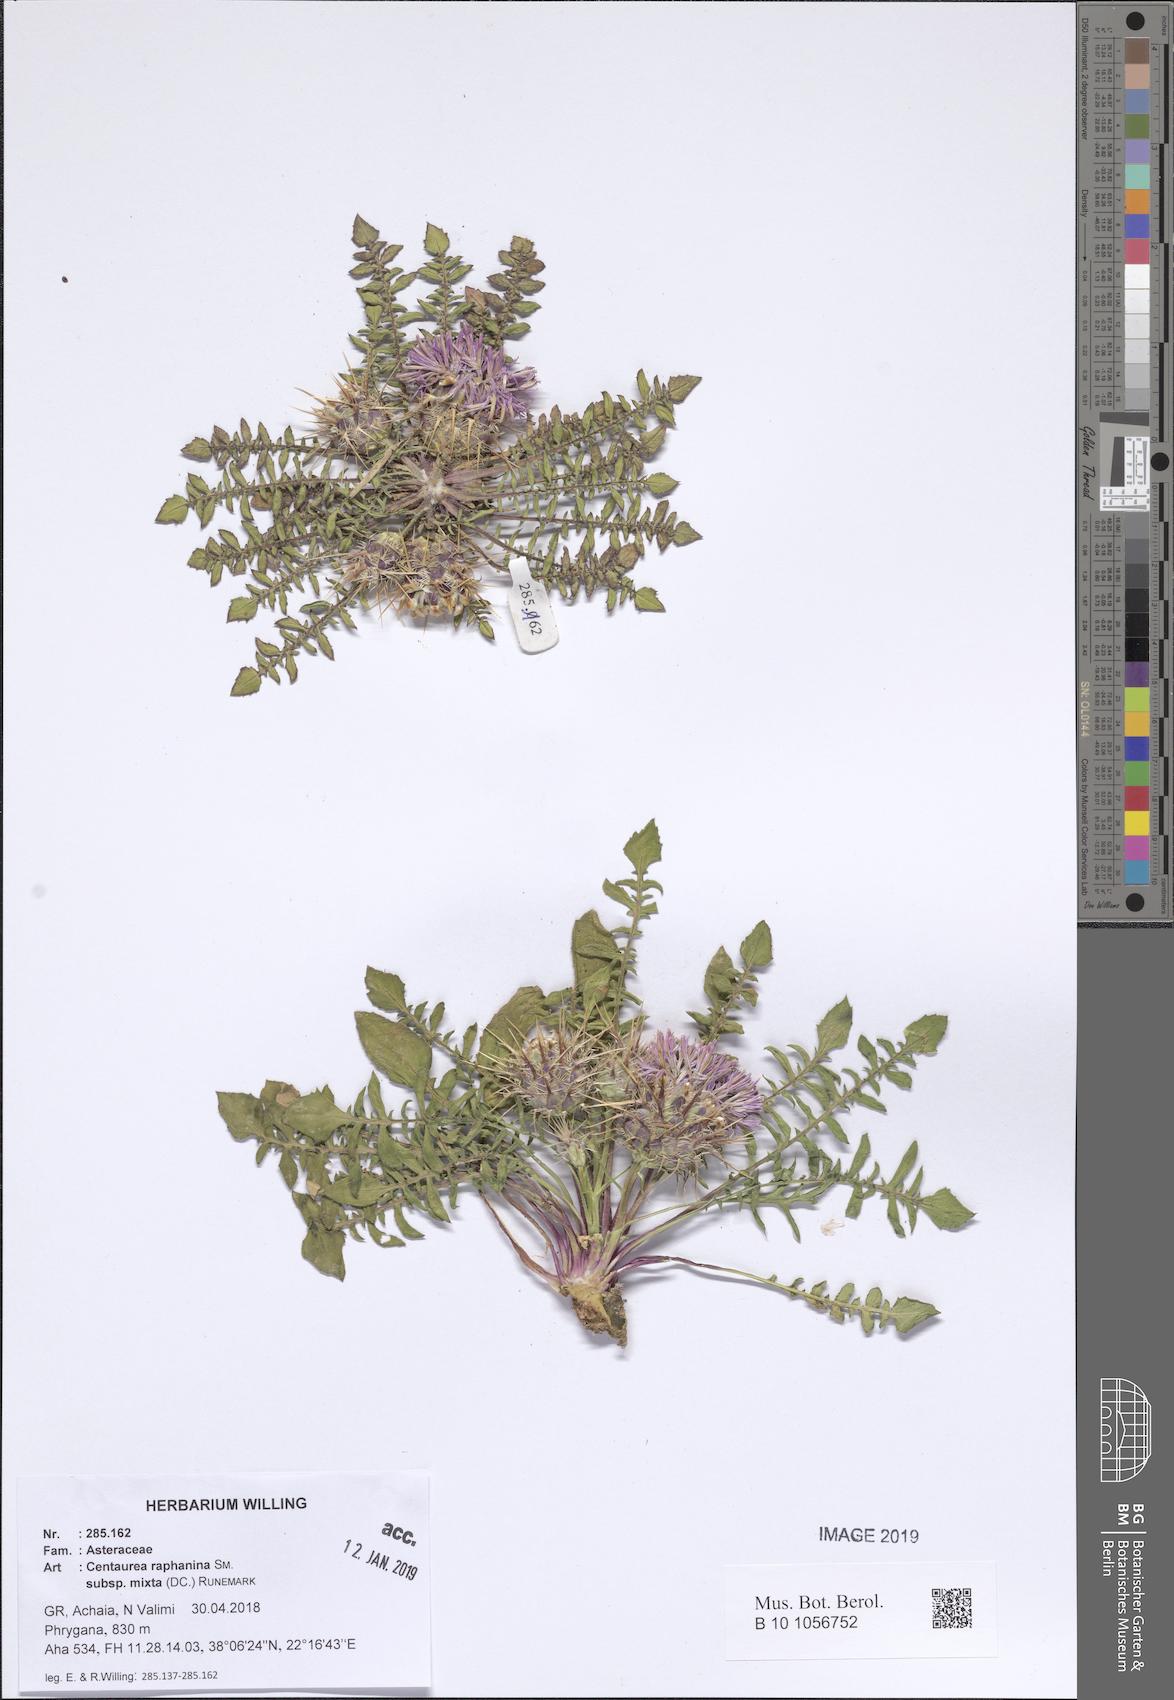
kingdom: Plantae
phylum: Tracheophyta
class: Magnoliopsida
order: Asterales
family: Asteraceae
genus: Centaurea
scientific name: Centaurea raphanina
